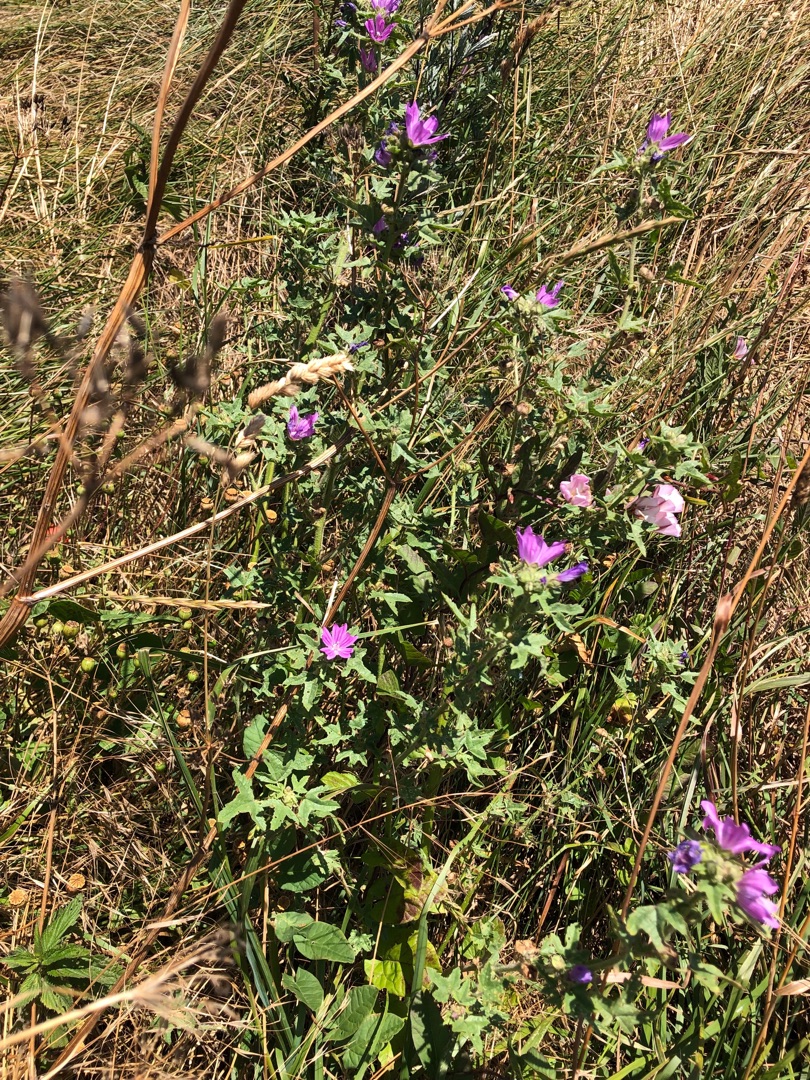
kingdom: Plantae
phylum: Tracheophyta
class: Magnoliopsida
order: Malvales
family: Malvaceae
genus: Malva
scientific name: Malva sylvestris
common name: Almindelig katost
